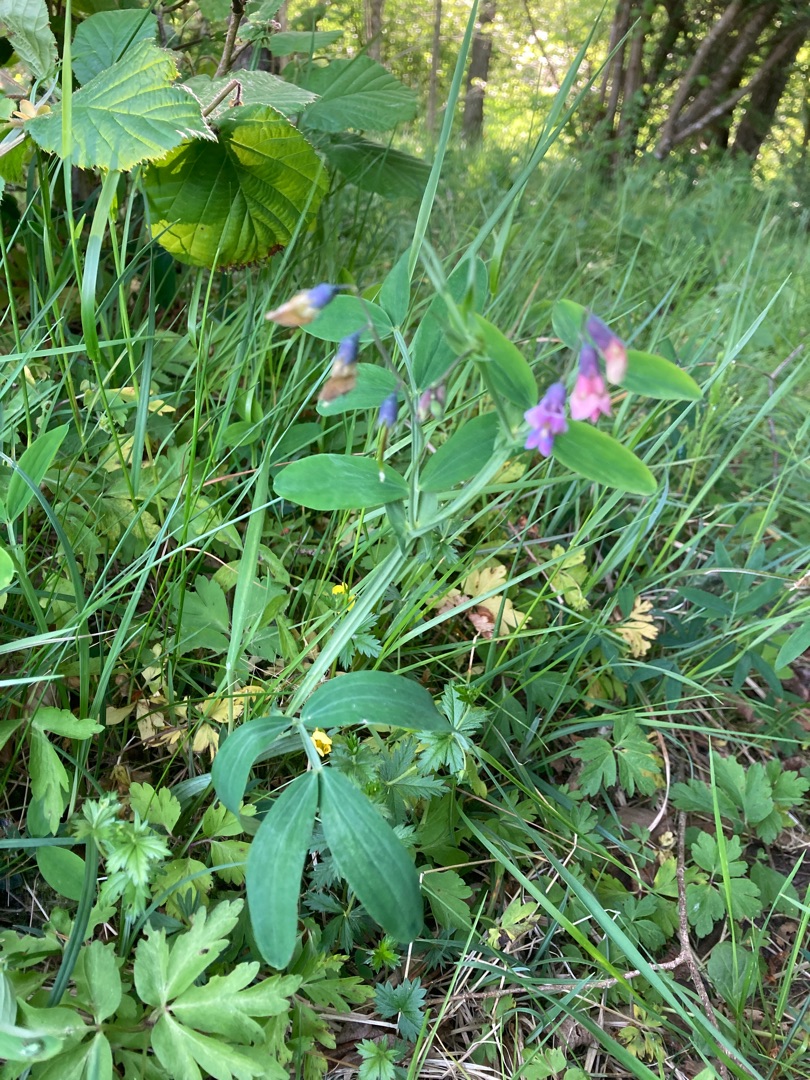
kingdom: Plantae
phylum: Tracheophyta
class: Magnoliopsida
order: Fabales
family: Fabaceae
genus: Lathyrus
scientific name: Lathyrus linifolius
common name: Krat-fladbælg
